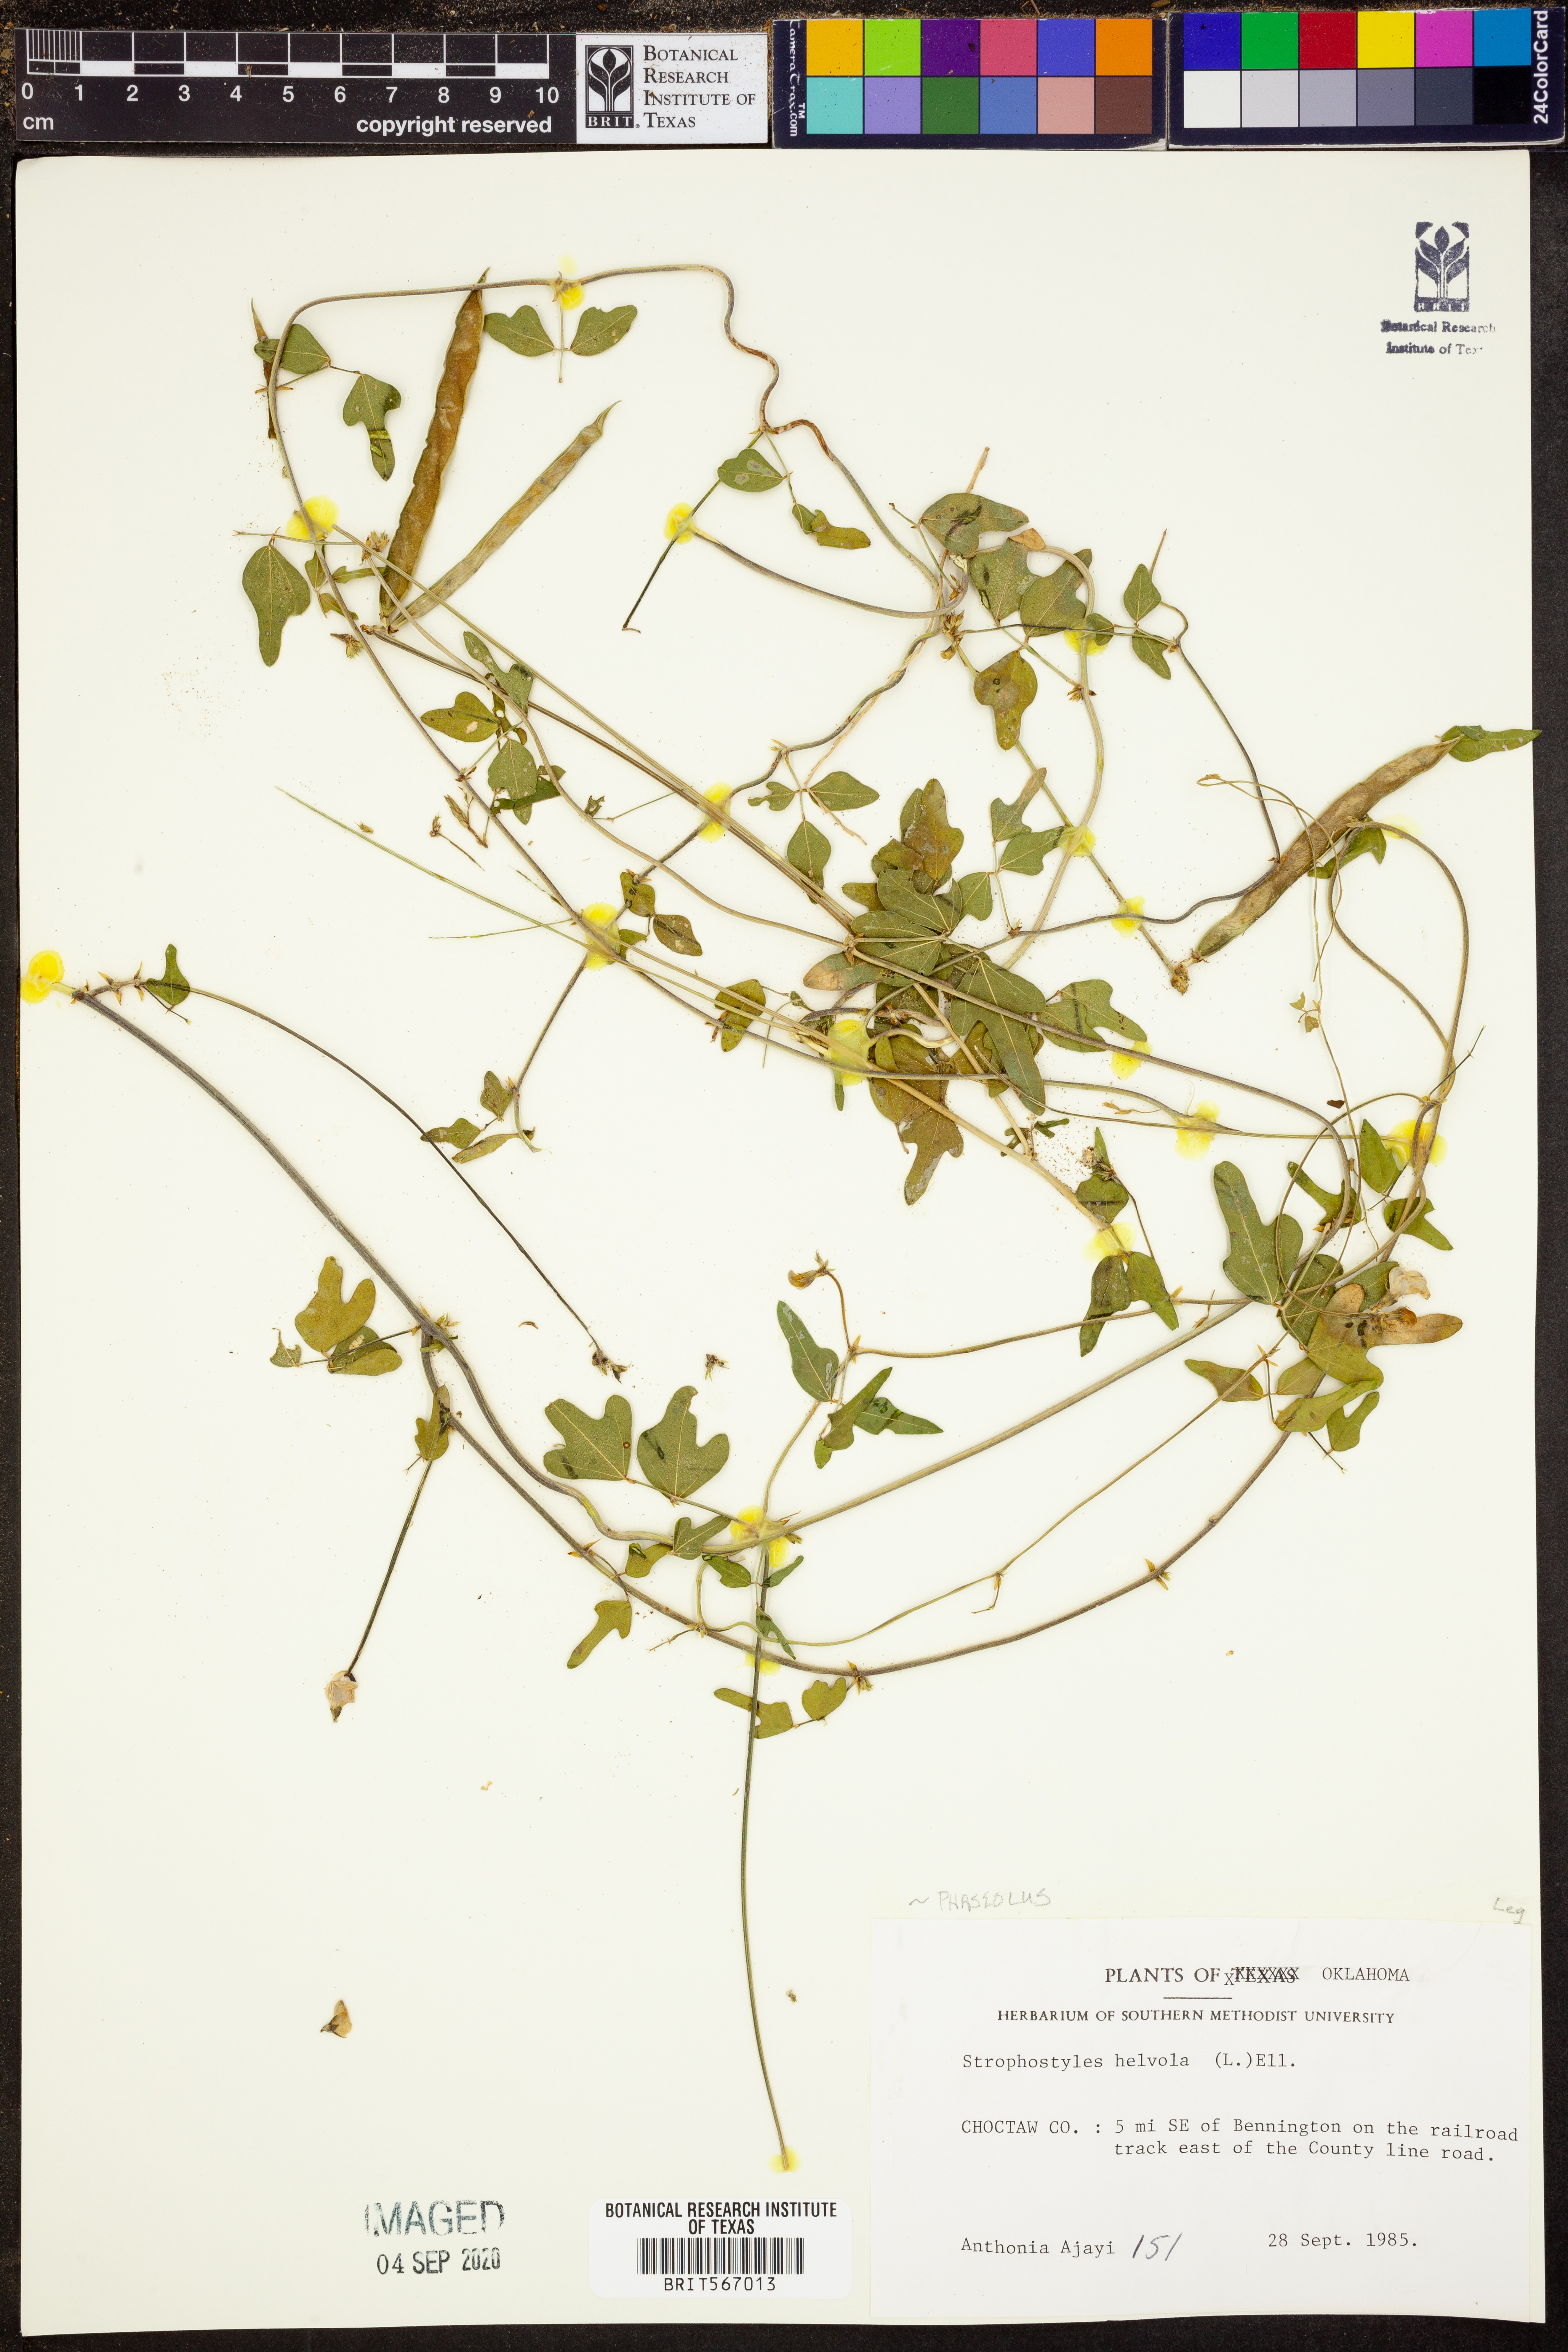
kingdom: Plantae
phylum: Tracheophyta
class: Magnoliopsida
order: Fabales
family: Fabaceae
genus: Strophostyles
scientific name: Strophostyles helvola
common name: Trailing wild bean
